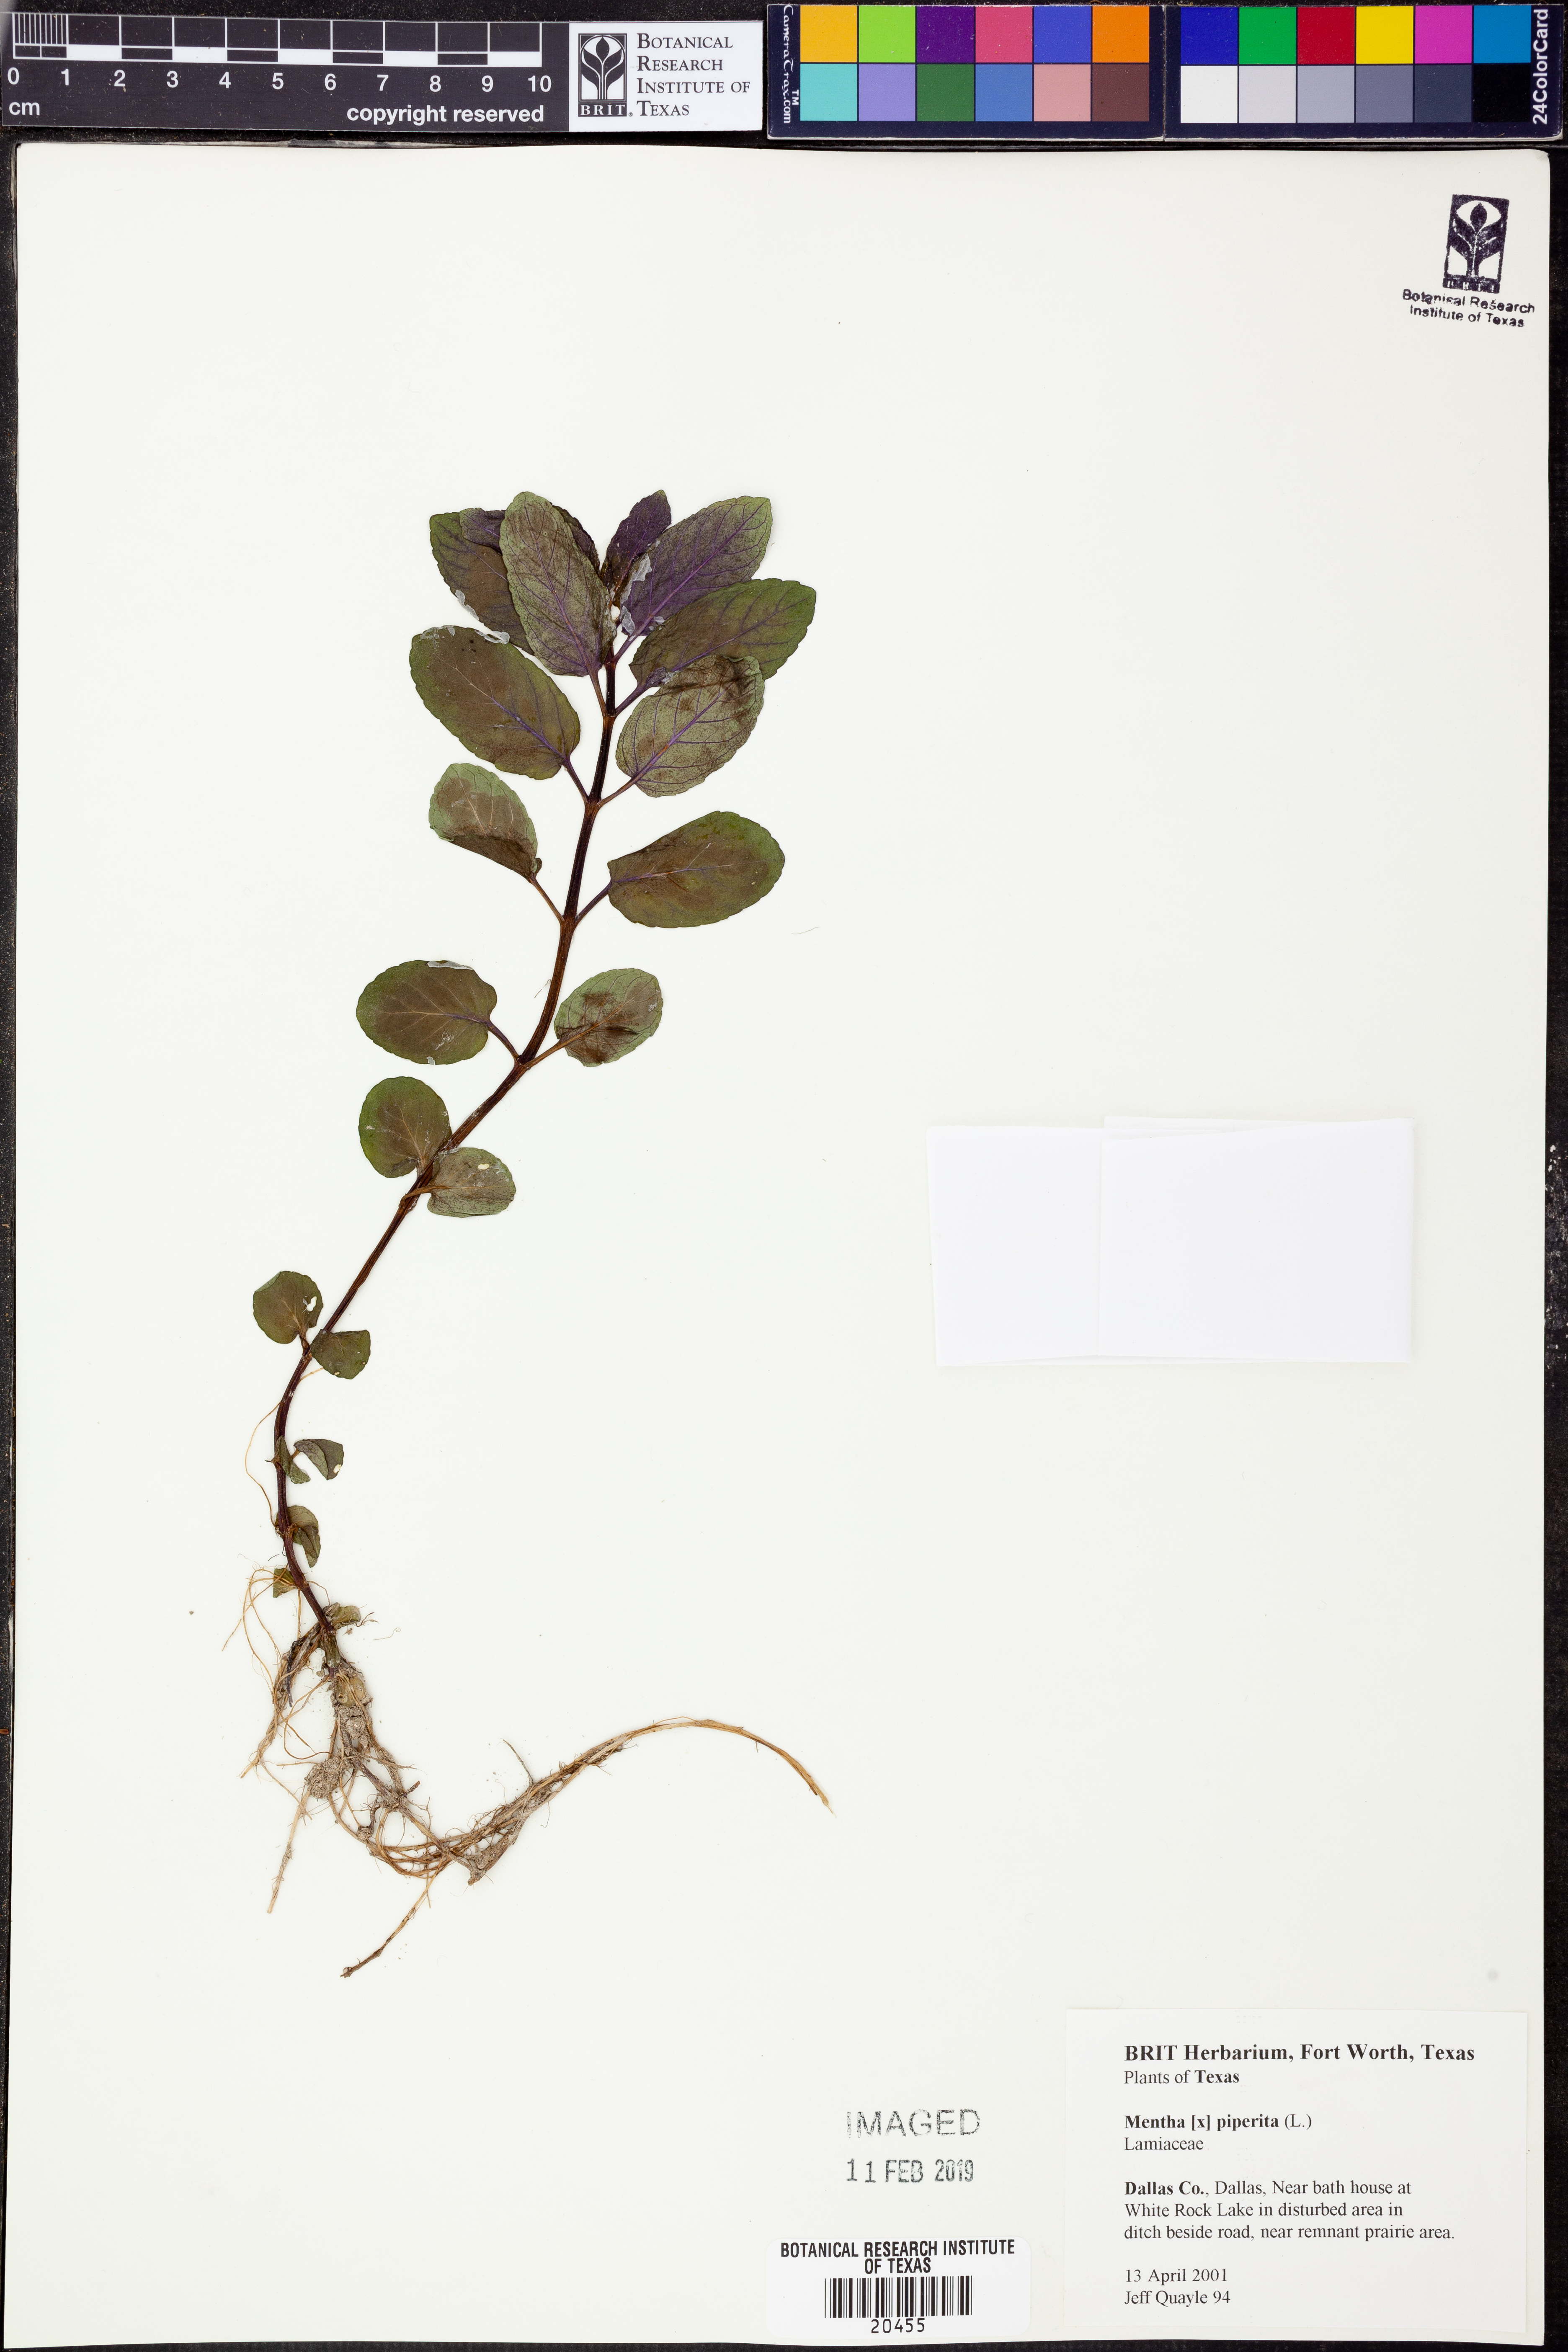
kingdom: Plantae
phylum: Tracheophyta
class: Magnoliopsida
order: Lamiales
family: Lamiaceae
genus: Mentha
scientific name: Mentha
